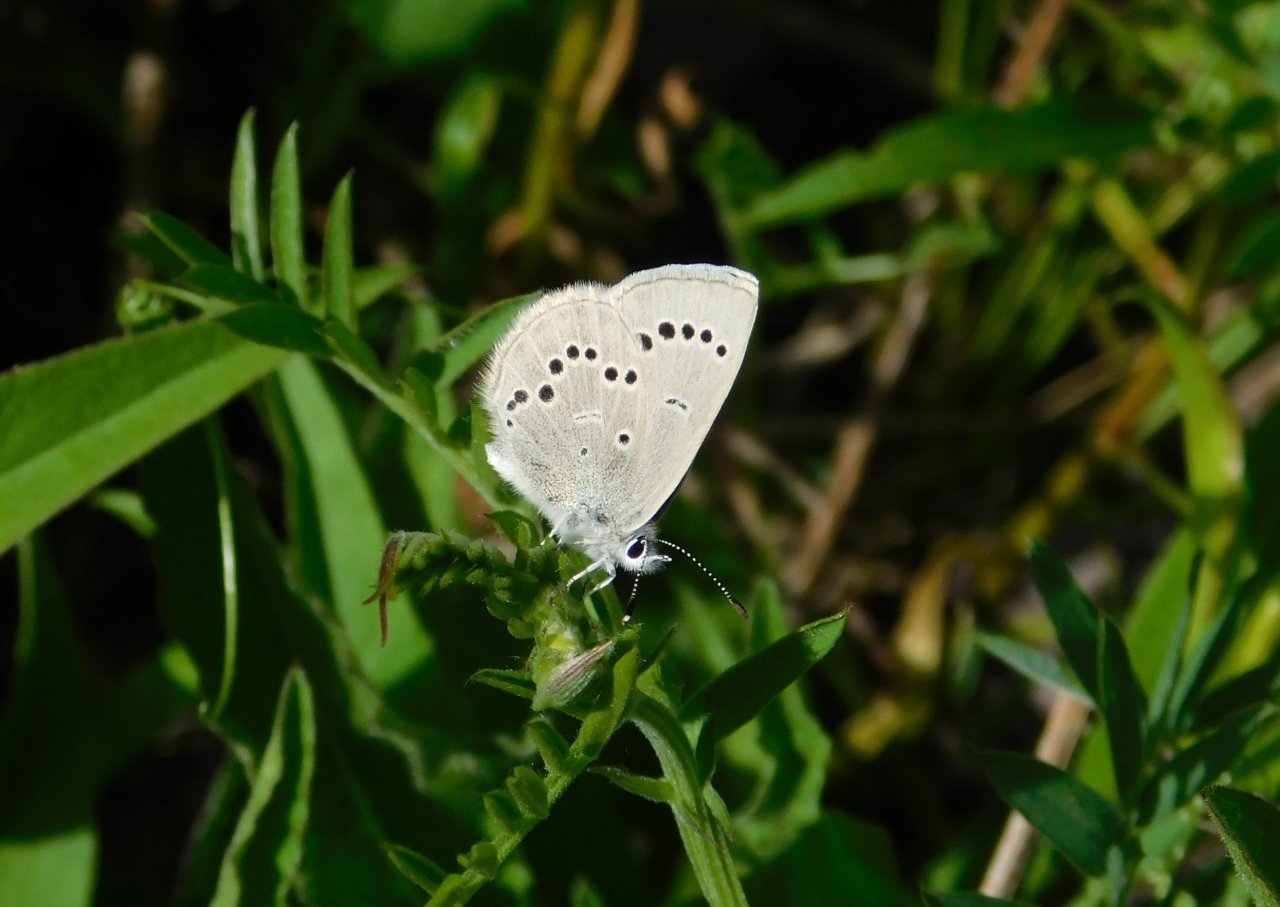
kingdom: Animalia
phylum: Arthropoda
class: Insecta
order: Lepidoptera
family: Lycaenidae
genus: Glaucopsyche
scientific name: Glaucopsyche lygdamus
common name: Silvery Blue
